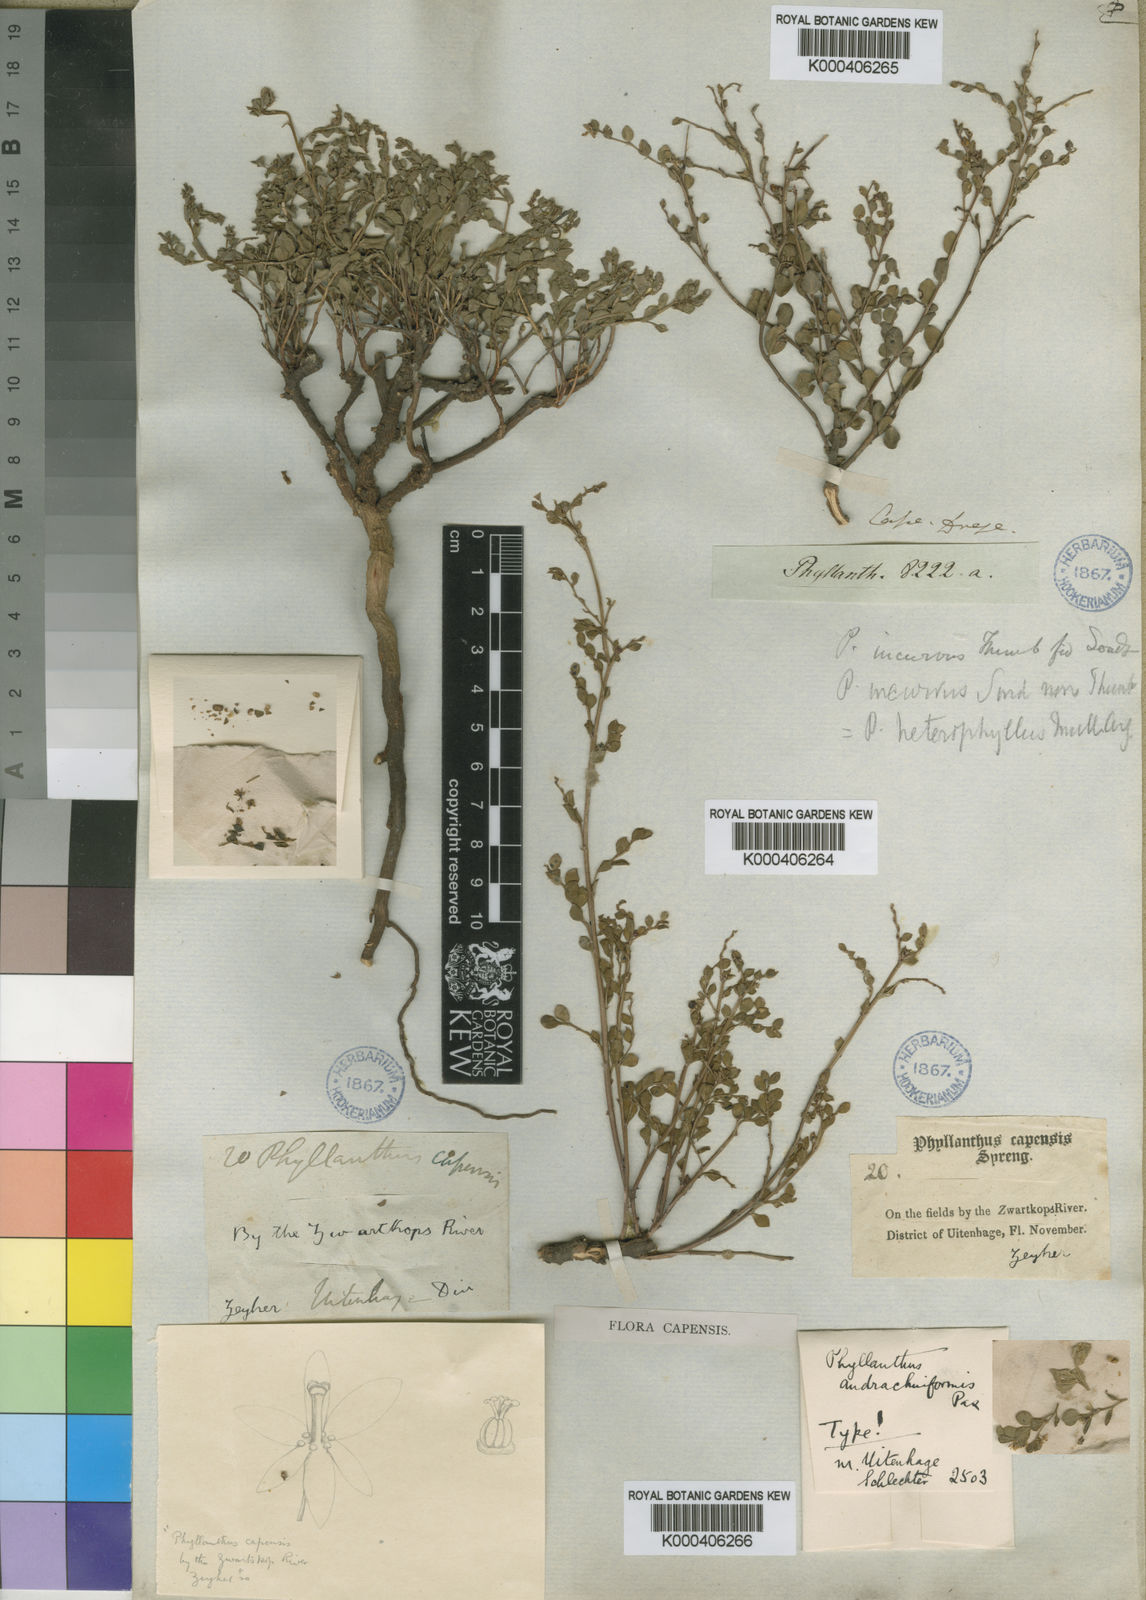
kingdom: Plantae
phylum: Tracheophyta
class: Magnoliopsida
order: Malpighiales
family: Phyllanthaceae
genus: Phyllanthus
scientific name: Phyllanthus
